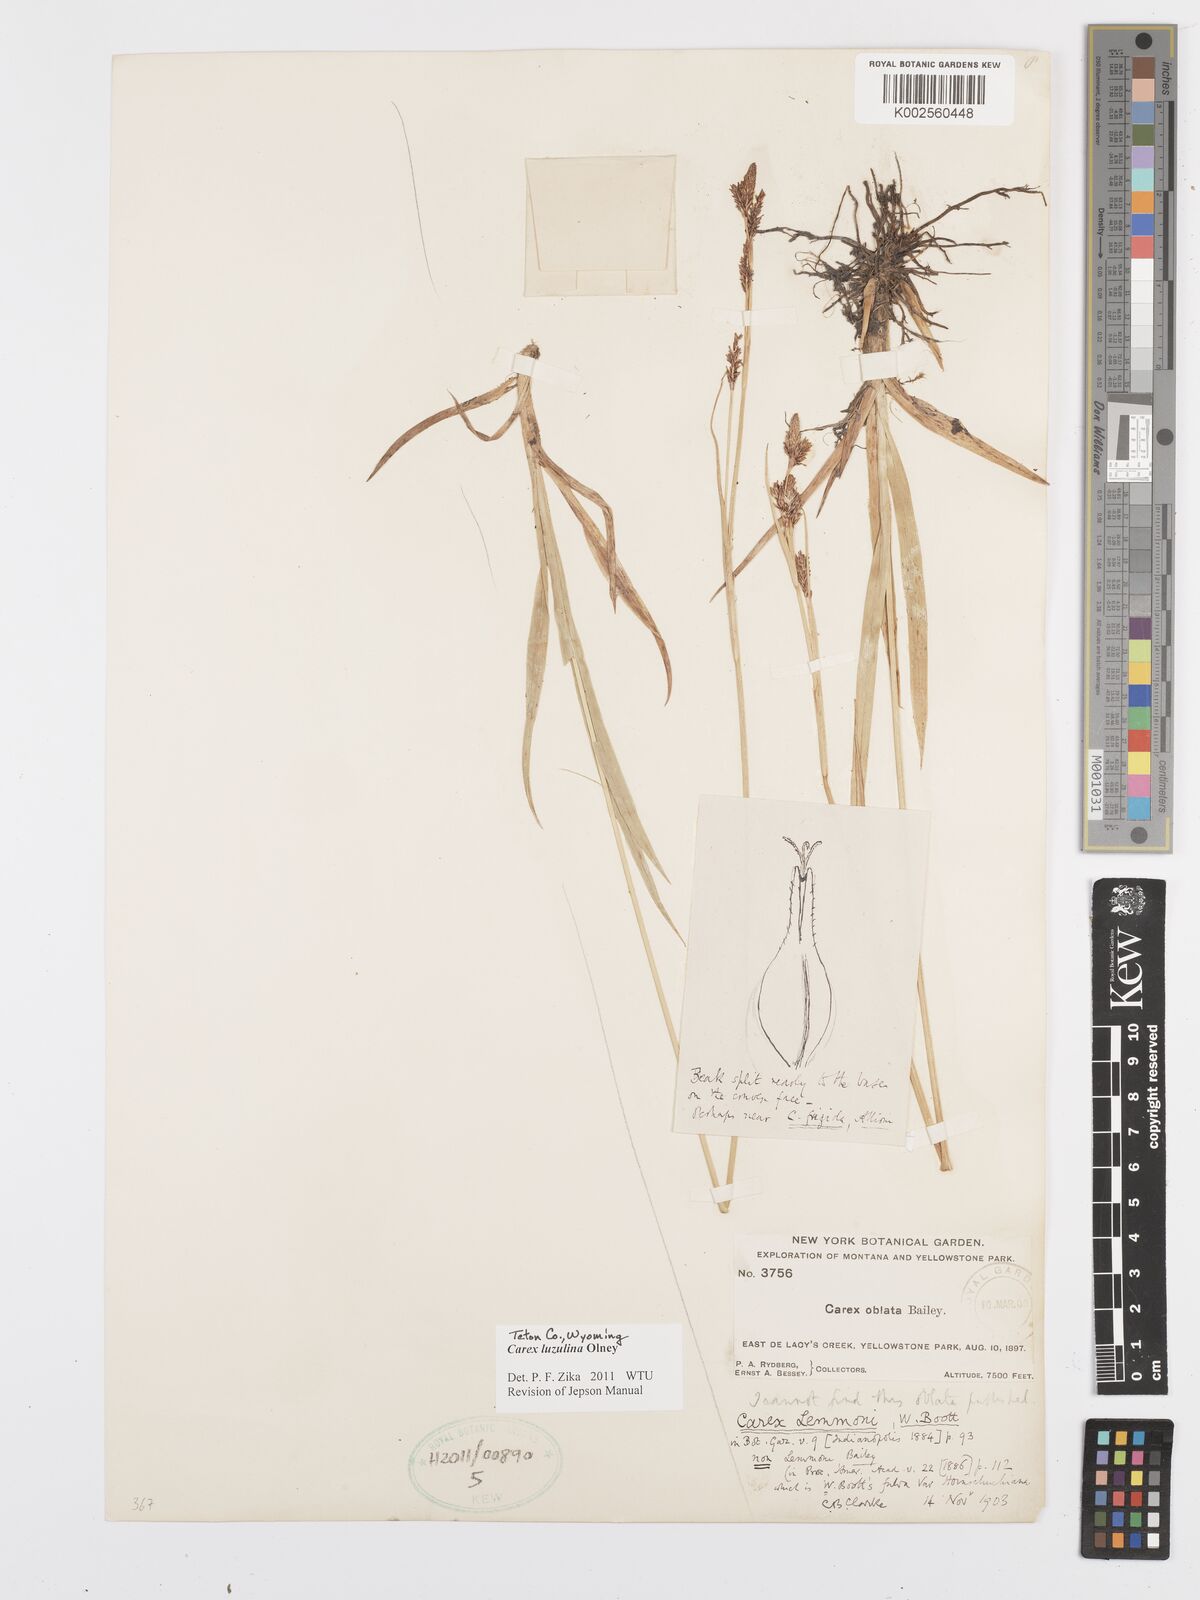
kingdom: Plantae
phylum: Tracheophyta
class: Liliopsida
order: Poales
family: Cyperaceae
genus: Carex
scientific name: Carex luzulina
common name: Spring sedge
